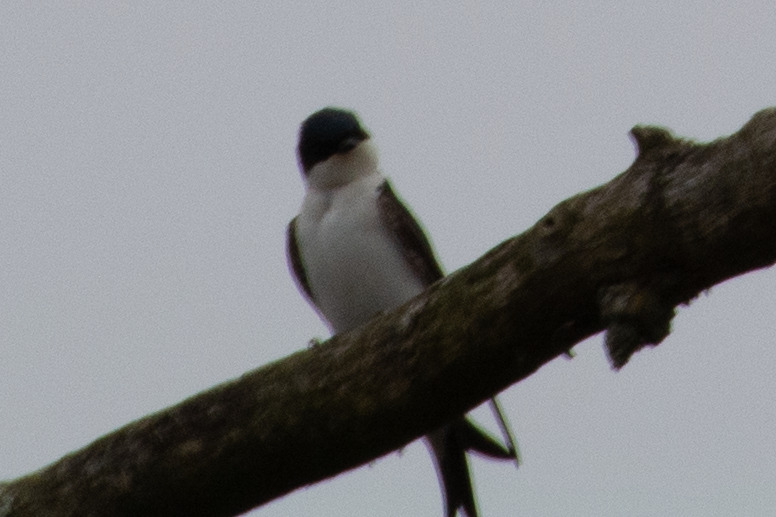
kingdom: Animalia
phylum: Chordata
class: Aves
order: Passeriformes
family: Hirundinidae
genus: Delichon
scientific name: Delichon urbicum
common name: Bysvale
